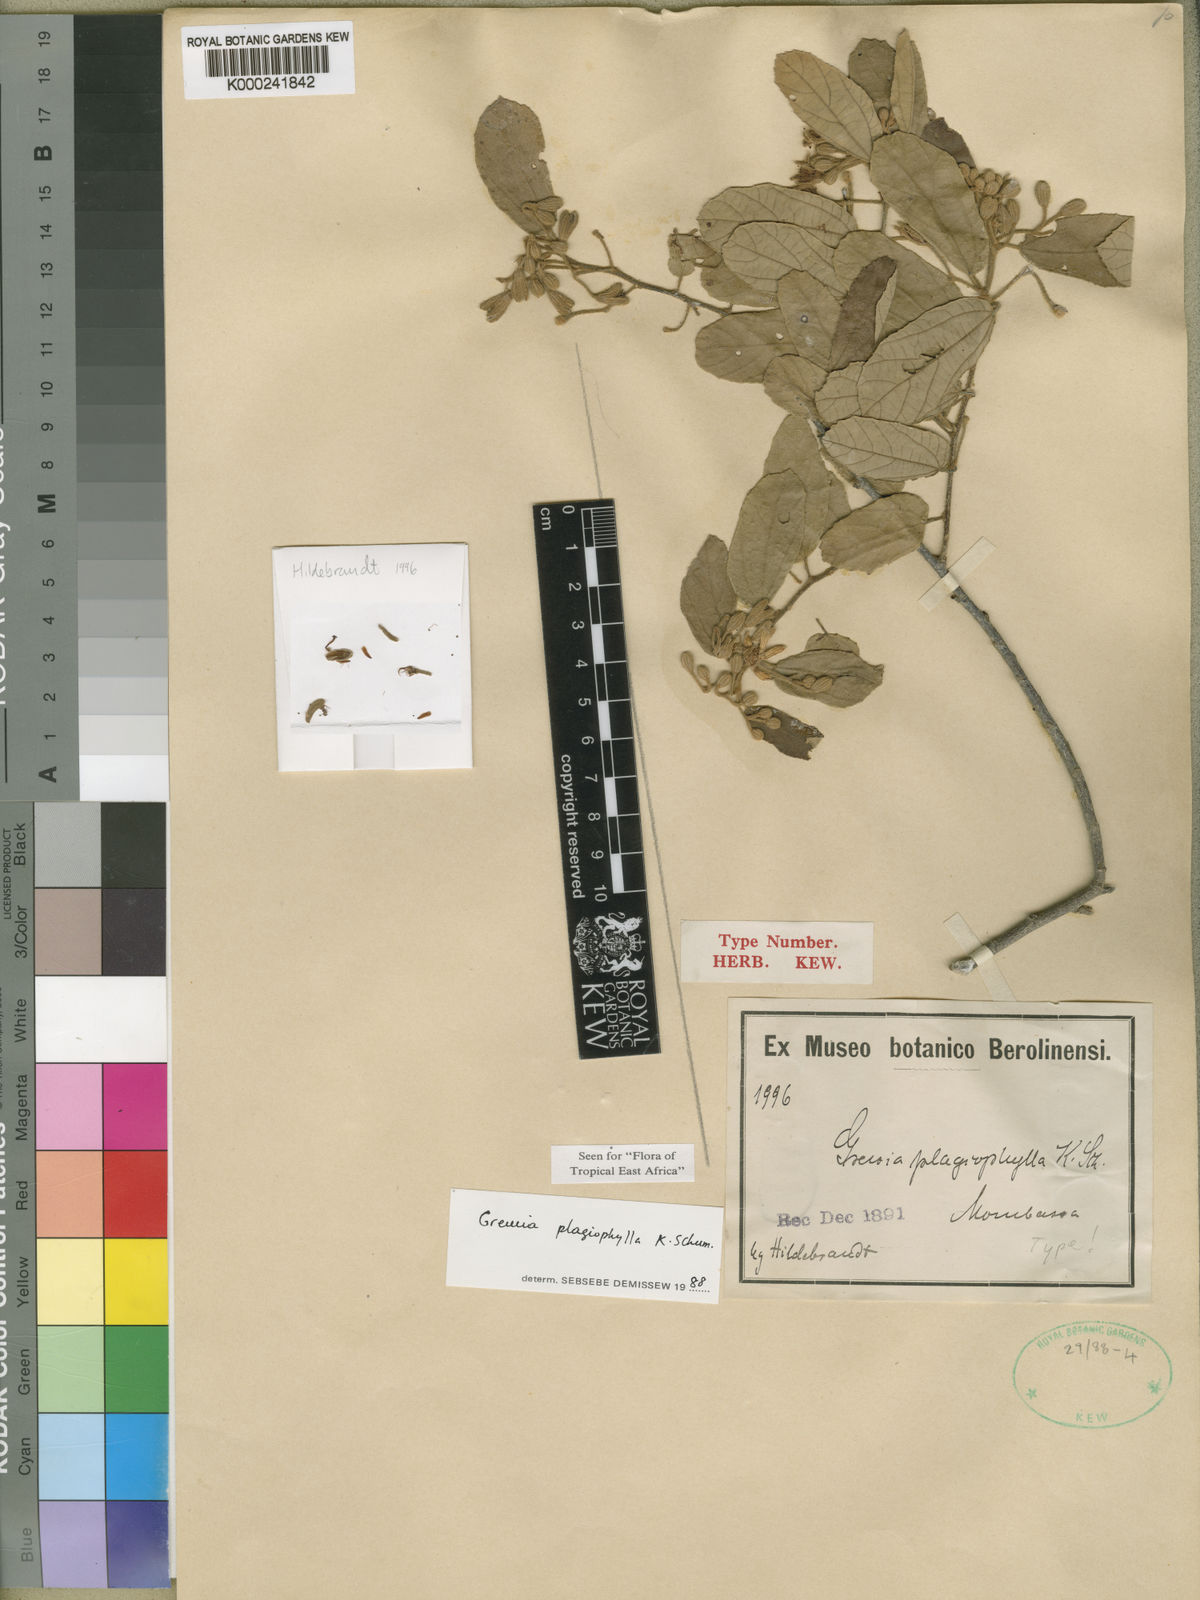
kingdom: Plantae
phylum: Tracheophyta
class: Magnoliopsida
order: Malvales
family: Malvaceae
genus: Grewia
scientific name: Grewia plagiophylla
